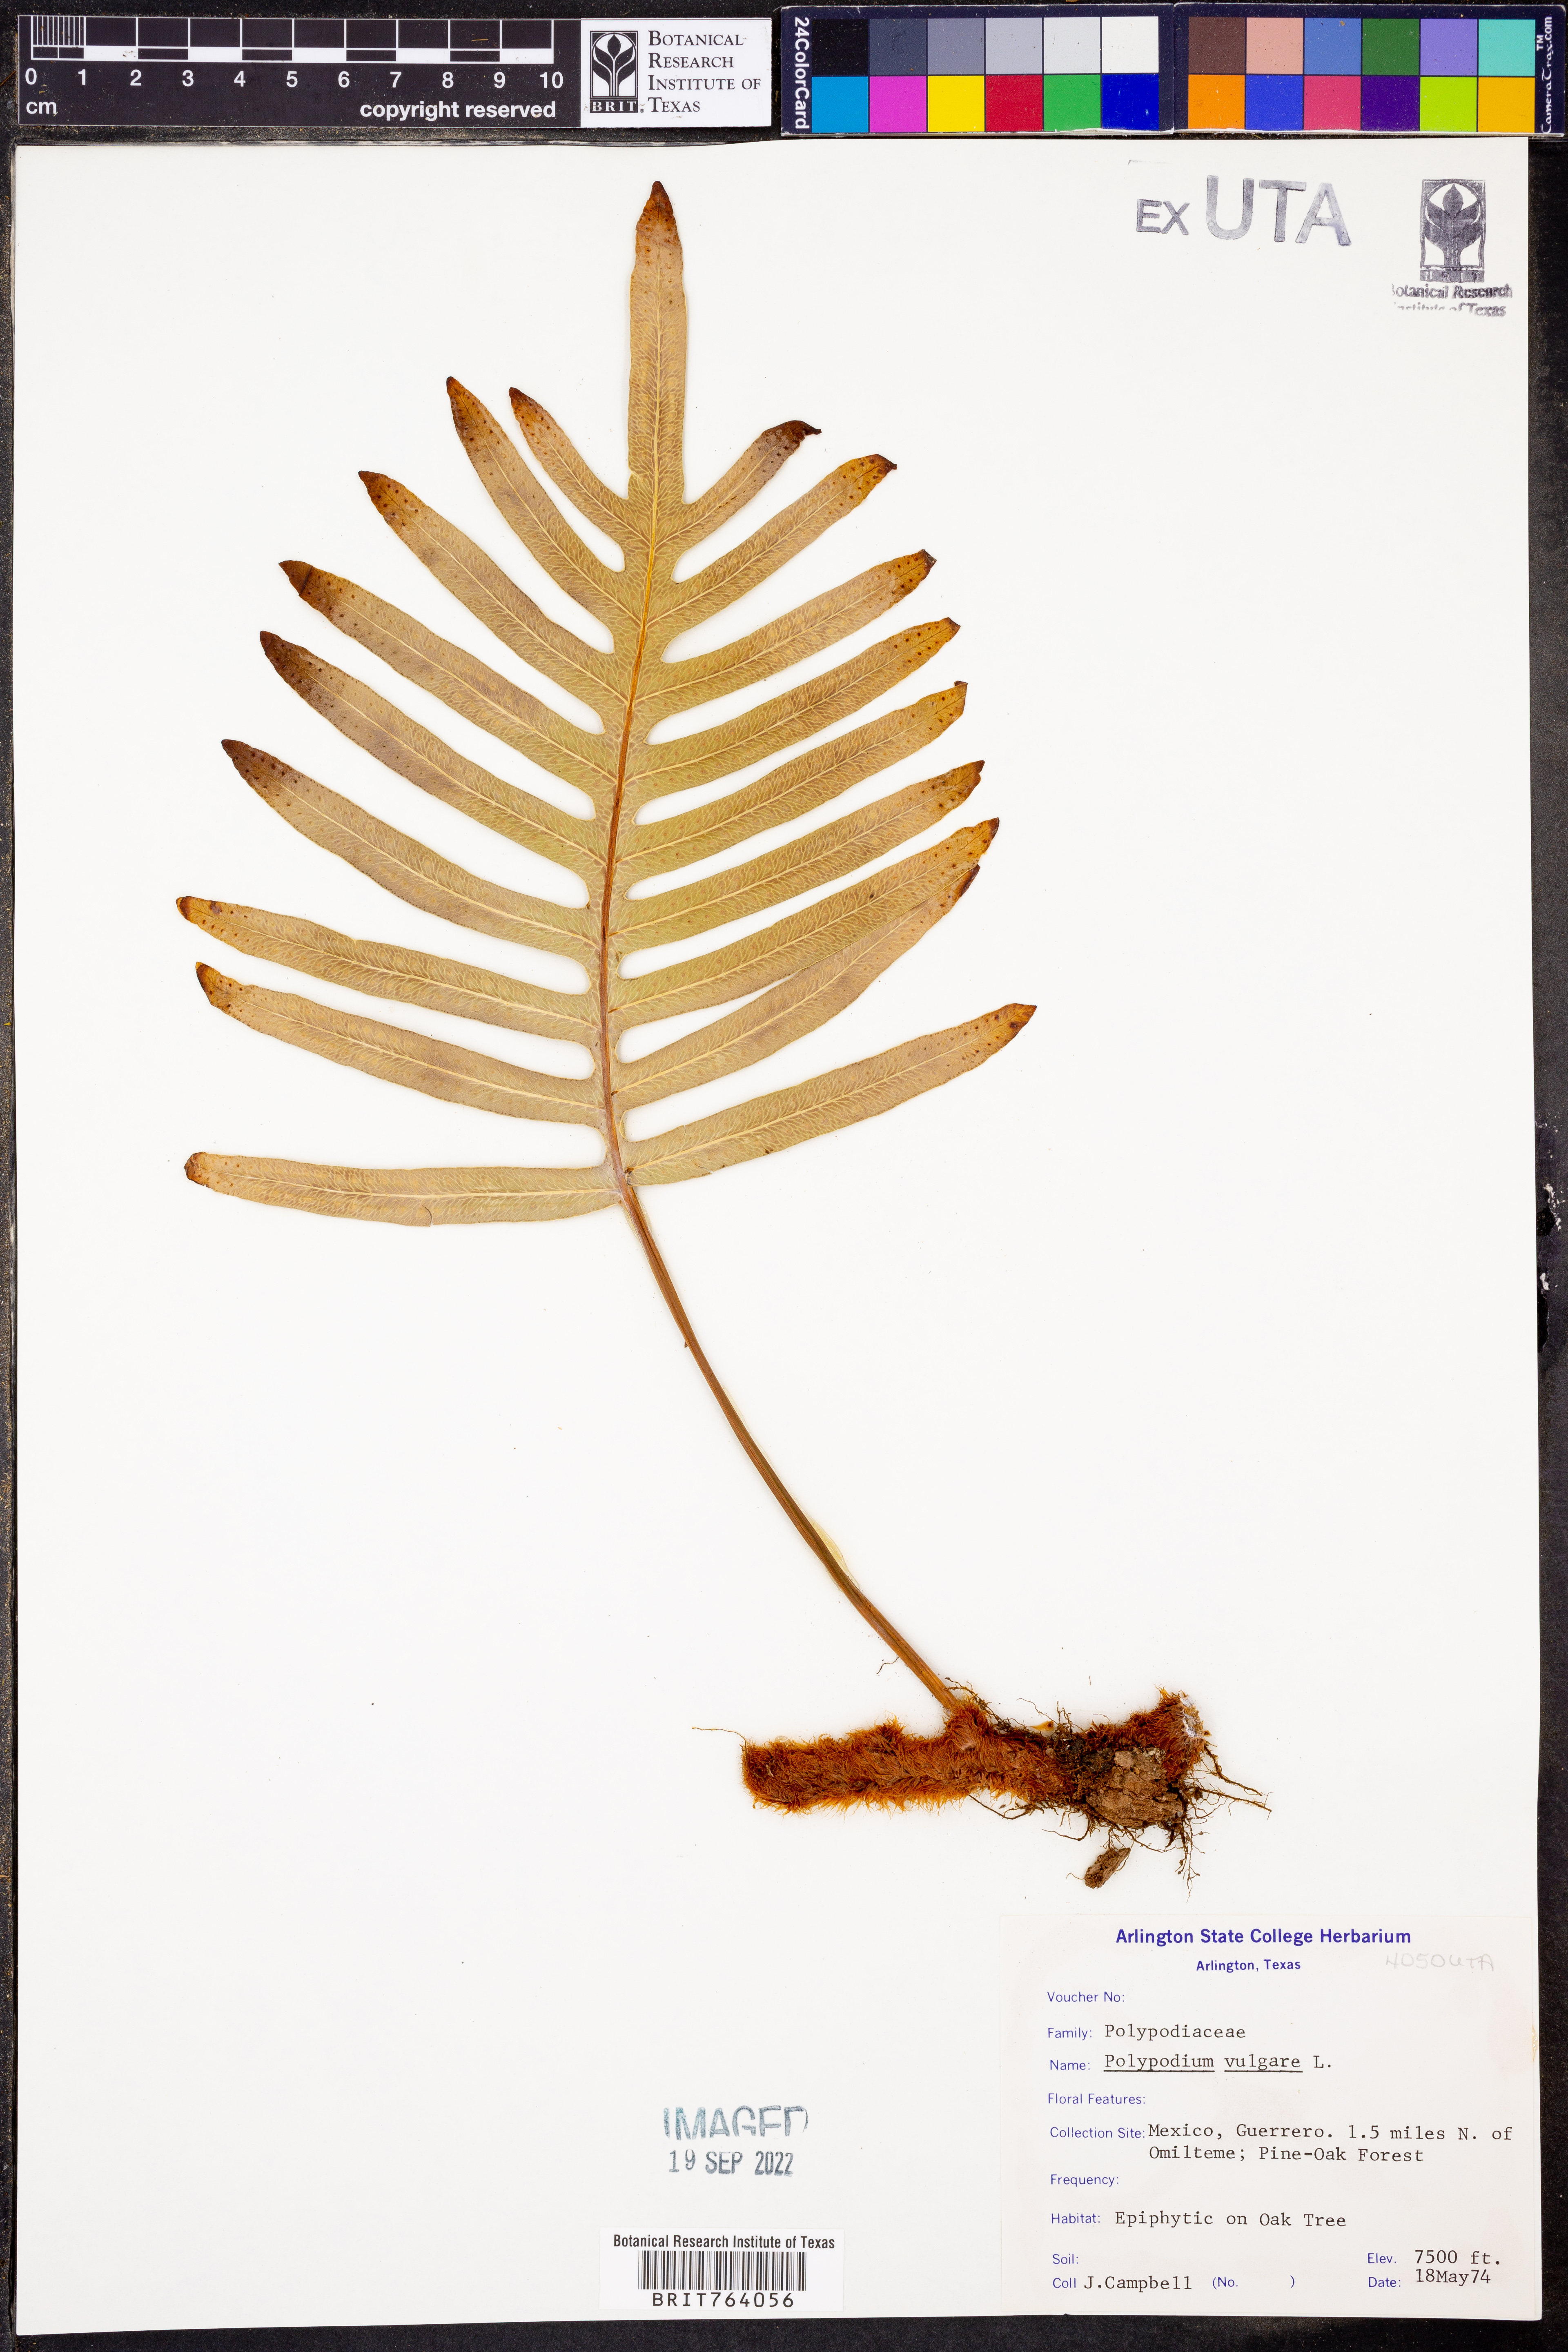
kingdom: Plantae
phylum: Tracheophyta
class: Polypodiopsida
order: Polypodiales
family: Polypodiaceae
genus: Polypodium
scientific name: Polypodium vulgare
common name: Common polypody
